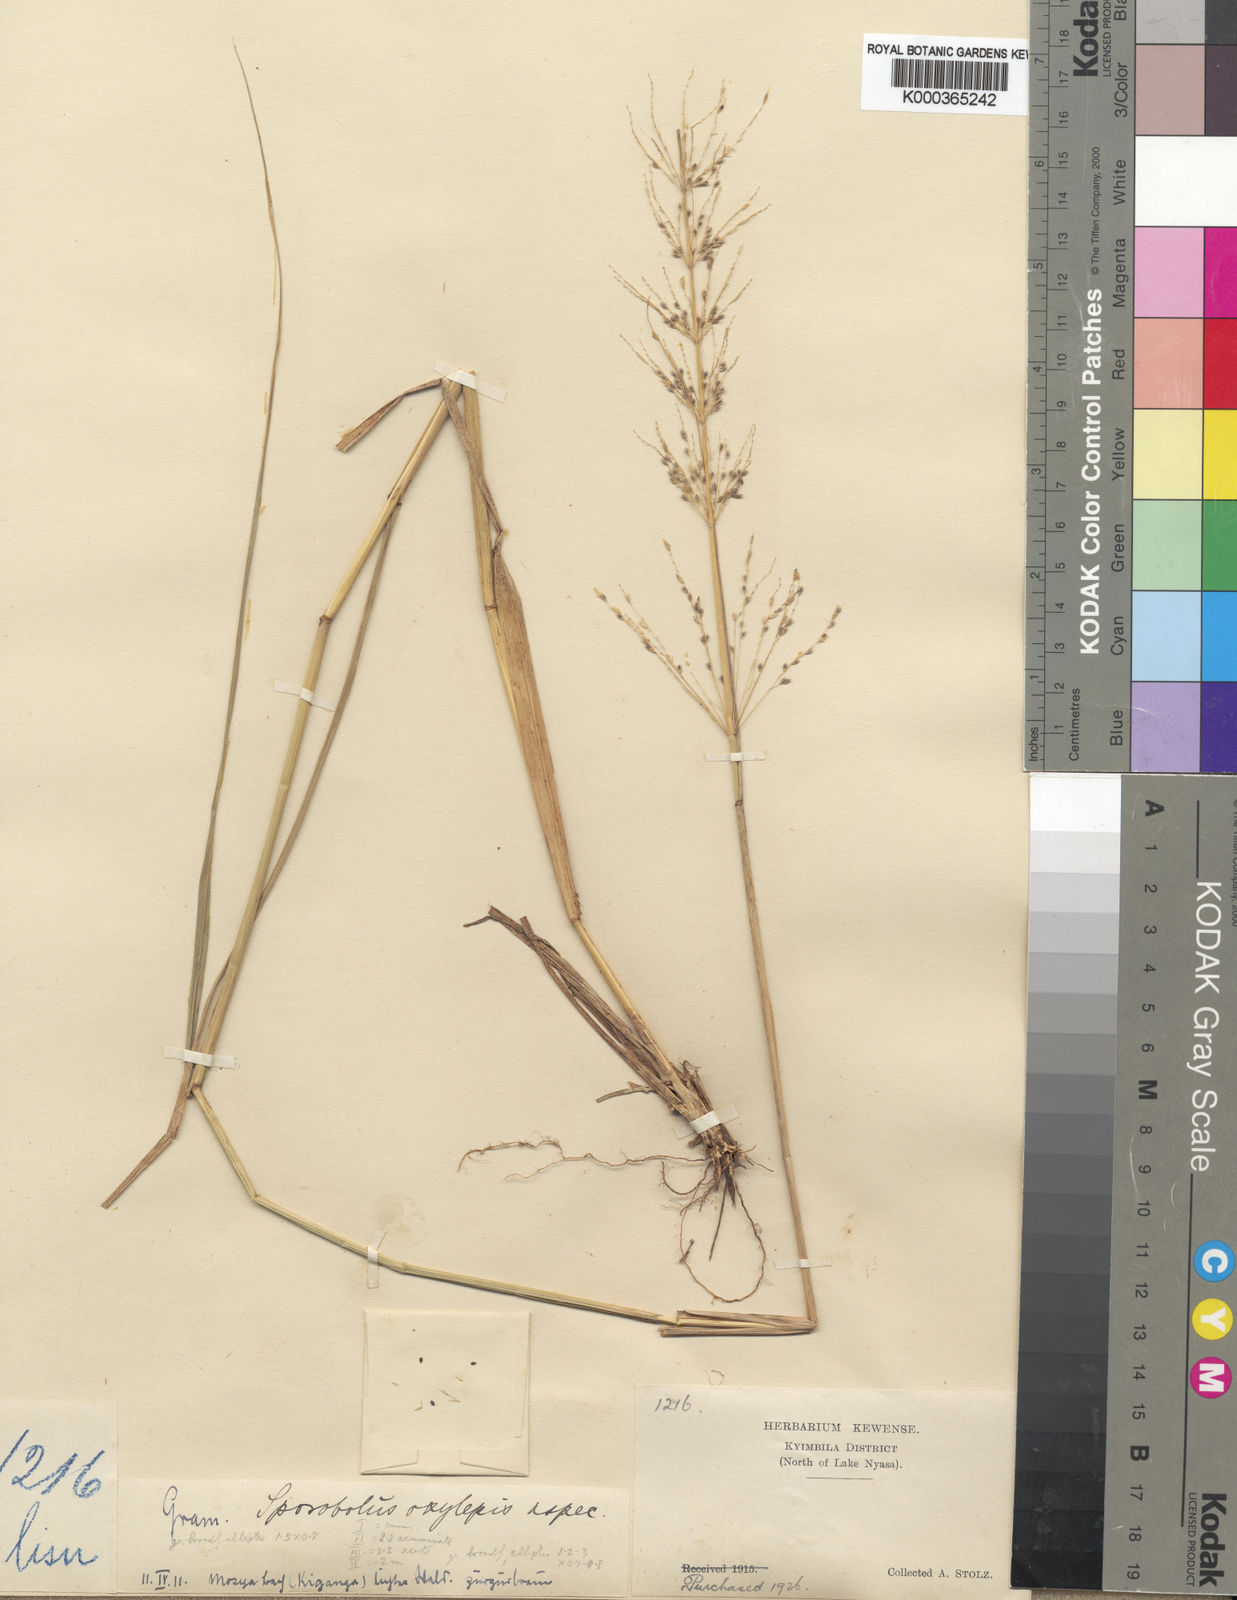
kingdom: Plantae
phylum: Tracheophyta
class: Liliopsida
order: Poales
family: Poaceae
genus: Sporobolus
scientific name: Sporobolus sanguineus
